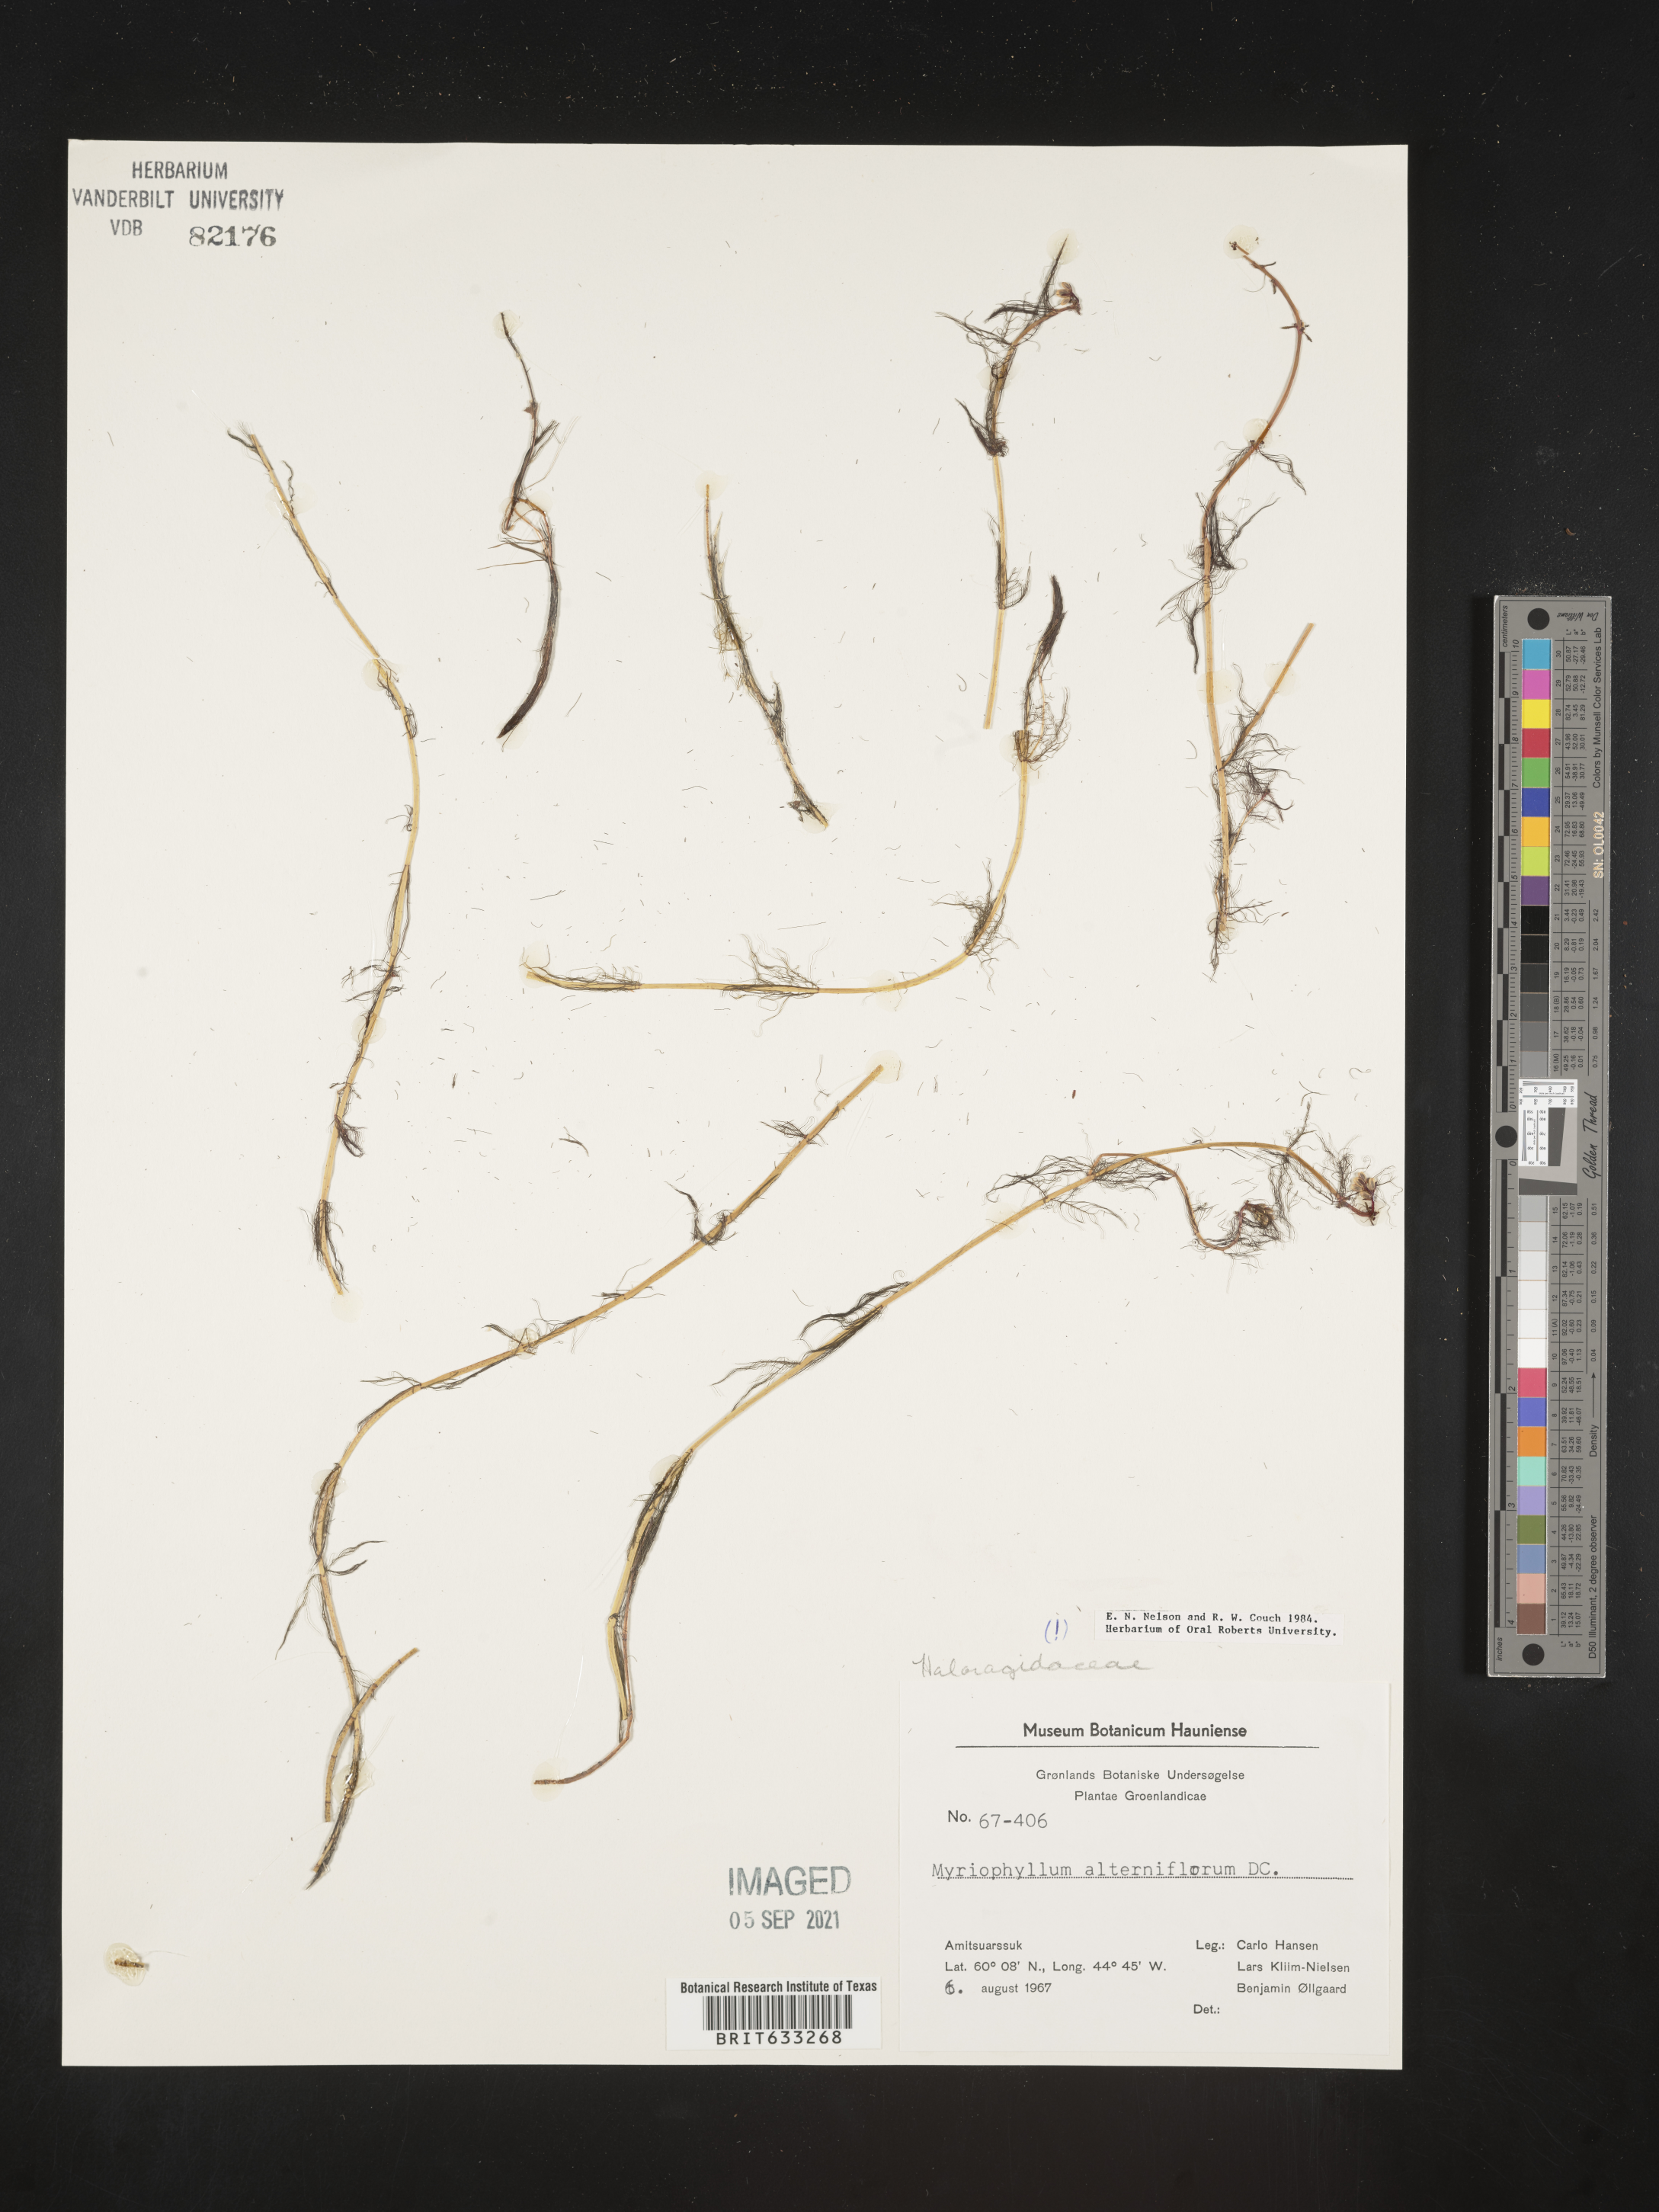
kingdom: Plantae
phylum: Tracheophyta
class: Magnoliopsida
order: Saxifragales
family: Haloragaceae
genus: Myriophyllum
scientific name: Myriophyllum
